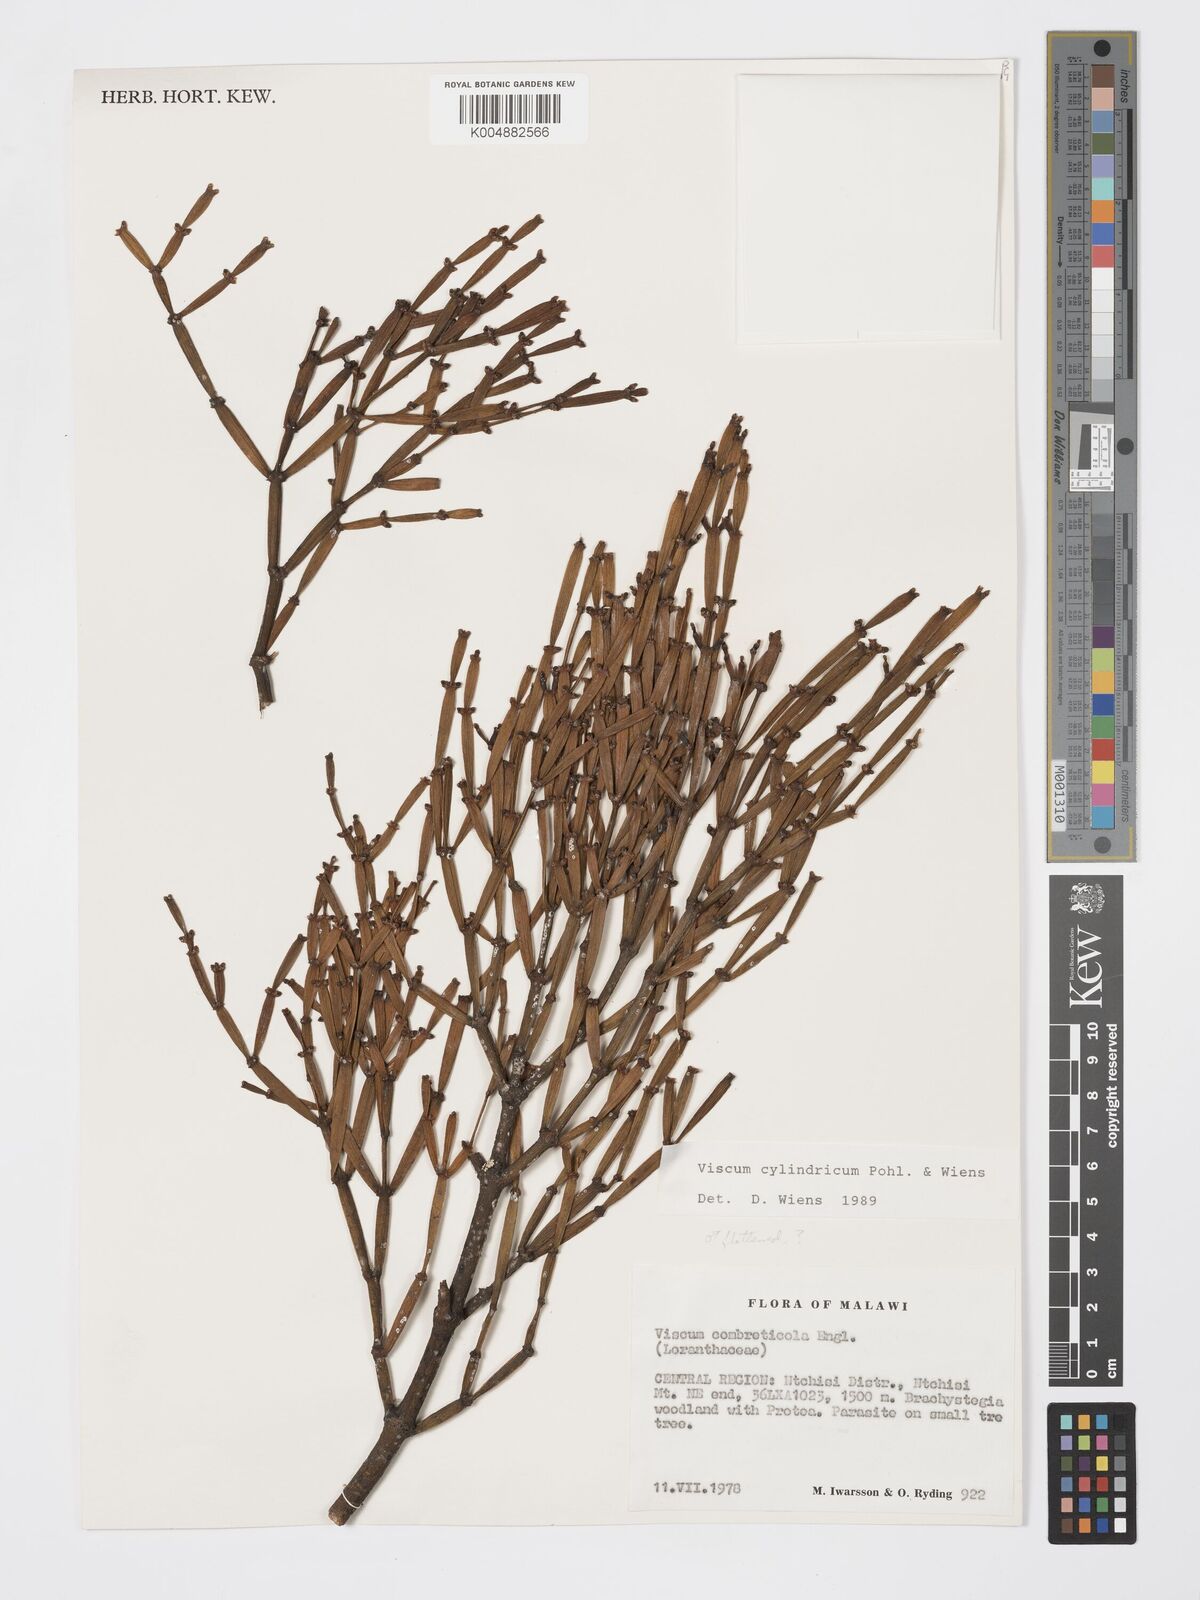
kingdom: Plantae
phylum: Tracheophyta
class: Magnoliopsida
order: Santalales
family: Viscaceae
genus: Viscum
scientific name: Viscum cylindricum
